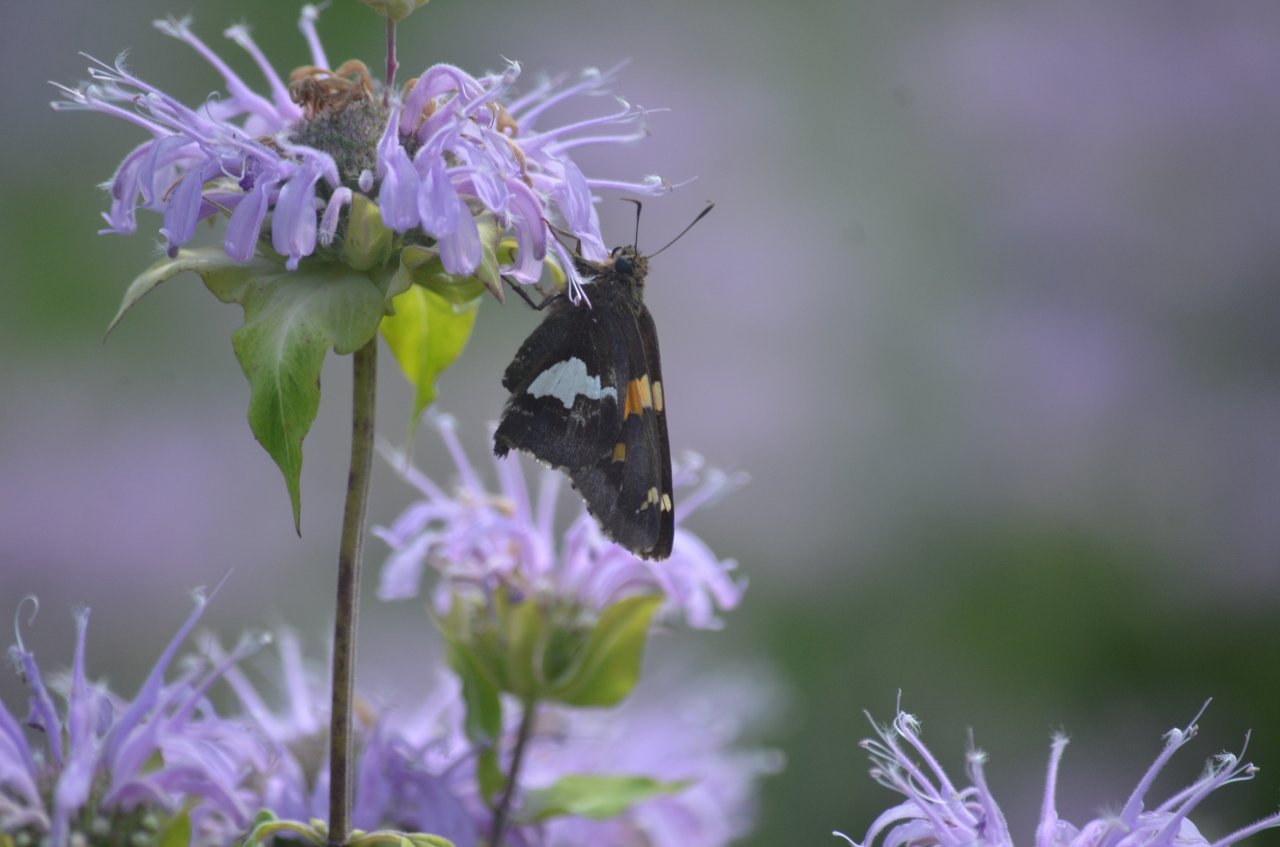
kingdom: Animalia
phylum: Arthropoda
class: Insecta
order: Lepidoptera
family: Hesperiidae
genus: Epargyreus
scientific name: Epargyreus clarus
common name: Silver-spotted Skipper
